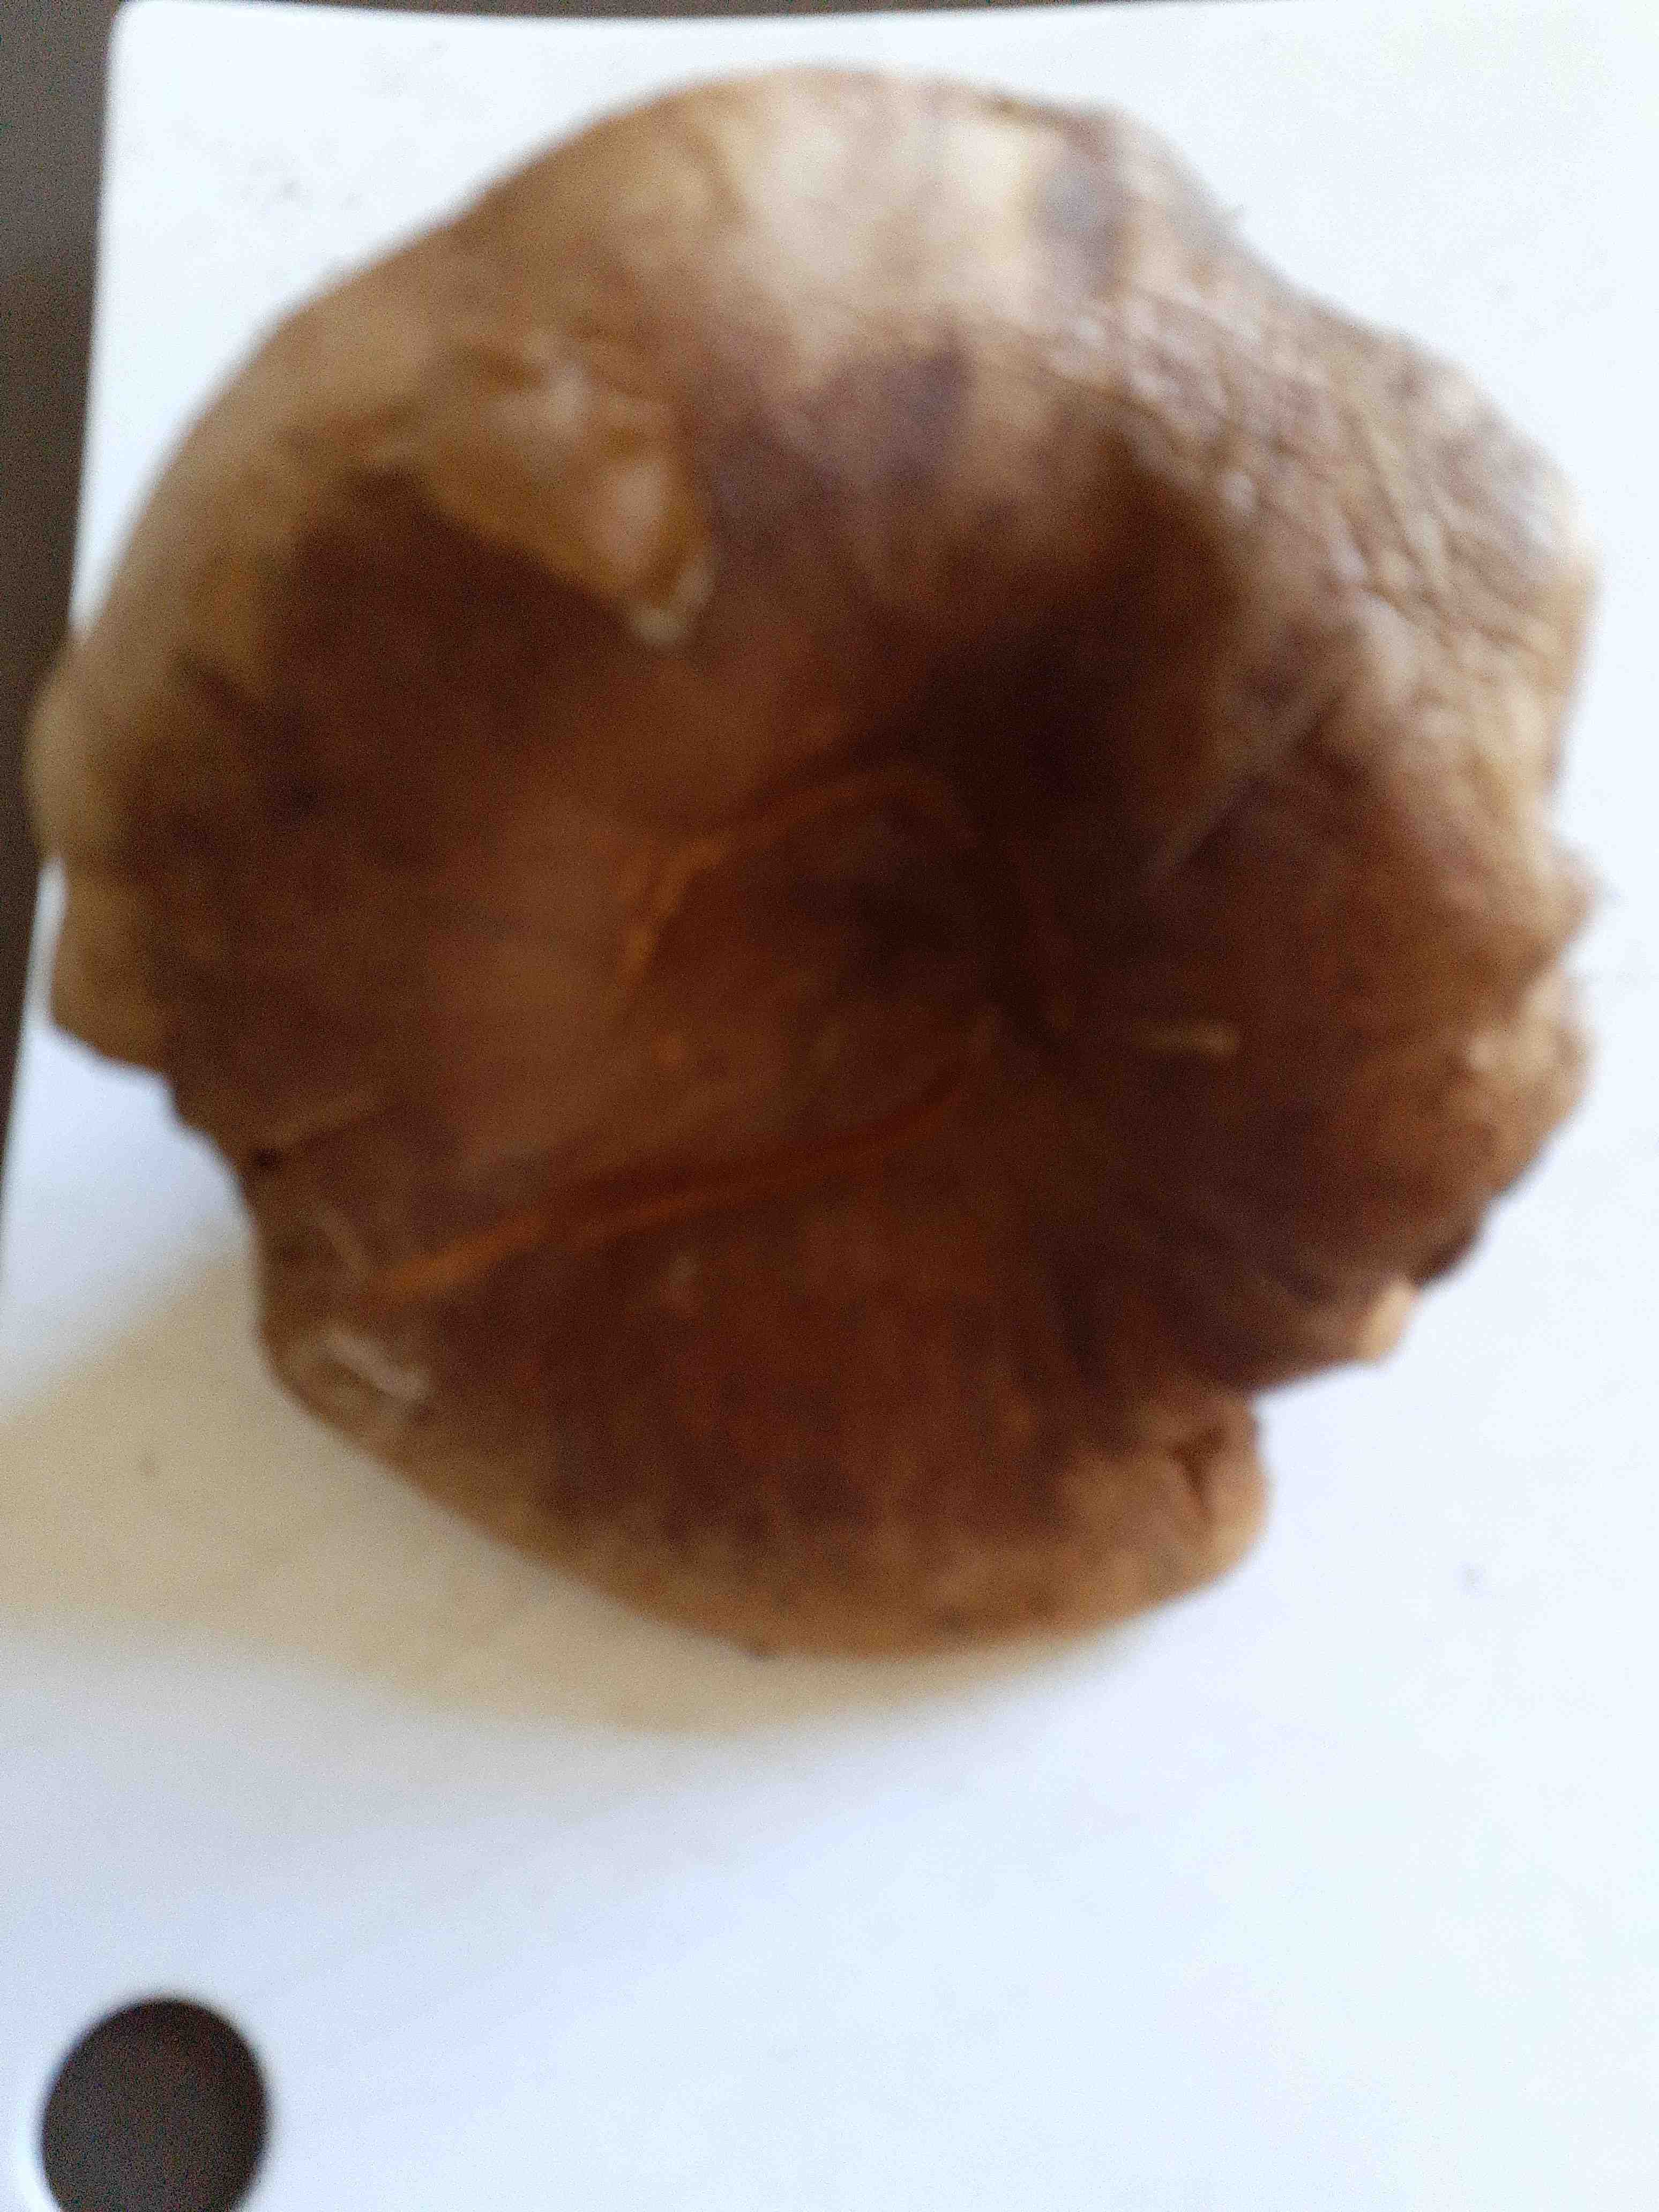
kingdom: Fungi
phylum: Basidiomycota
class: Agaricomycetes
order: Boletales
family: Paxillaceae
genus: Paxillus
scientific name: Paxillus
